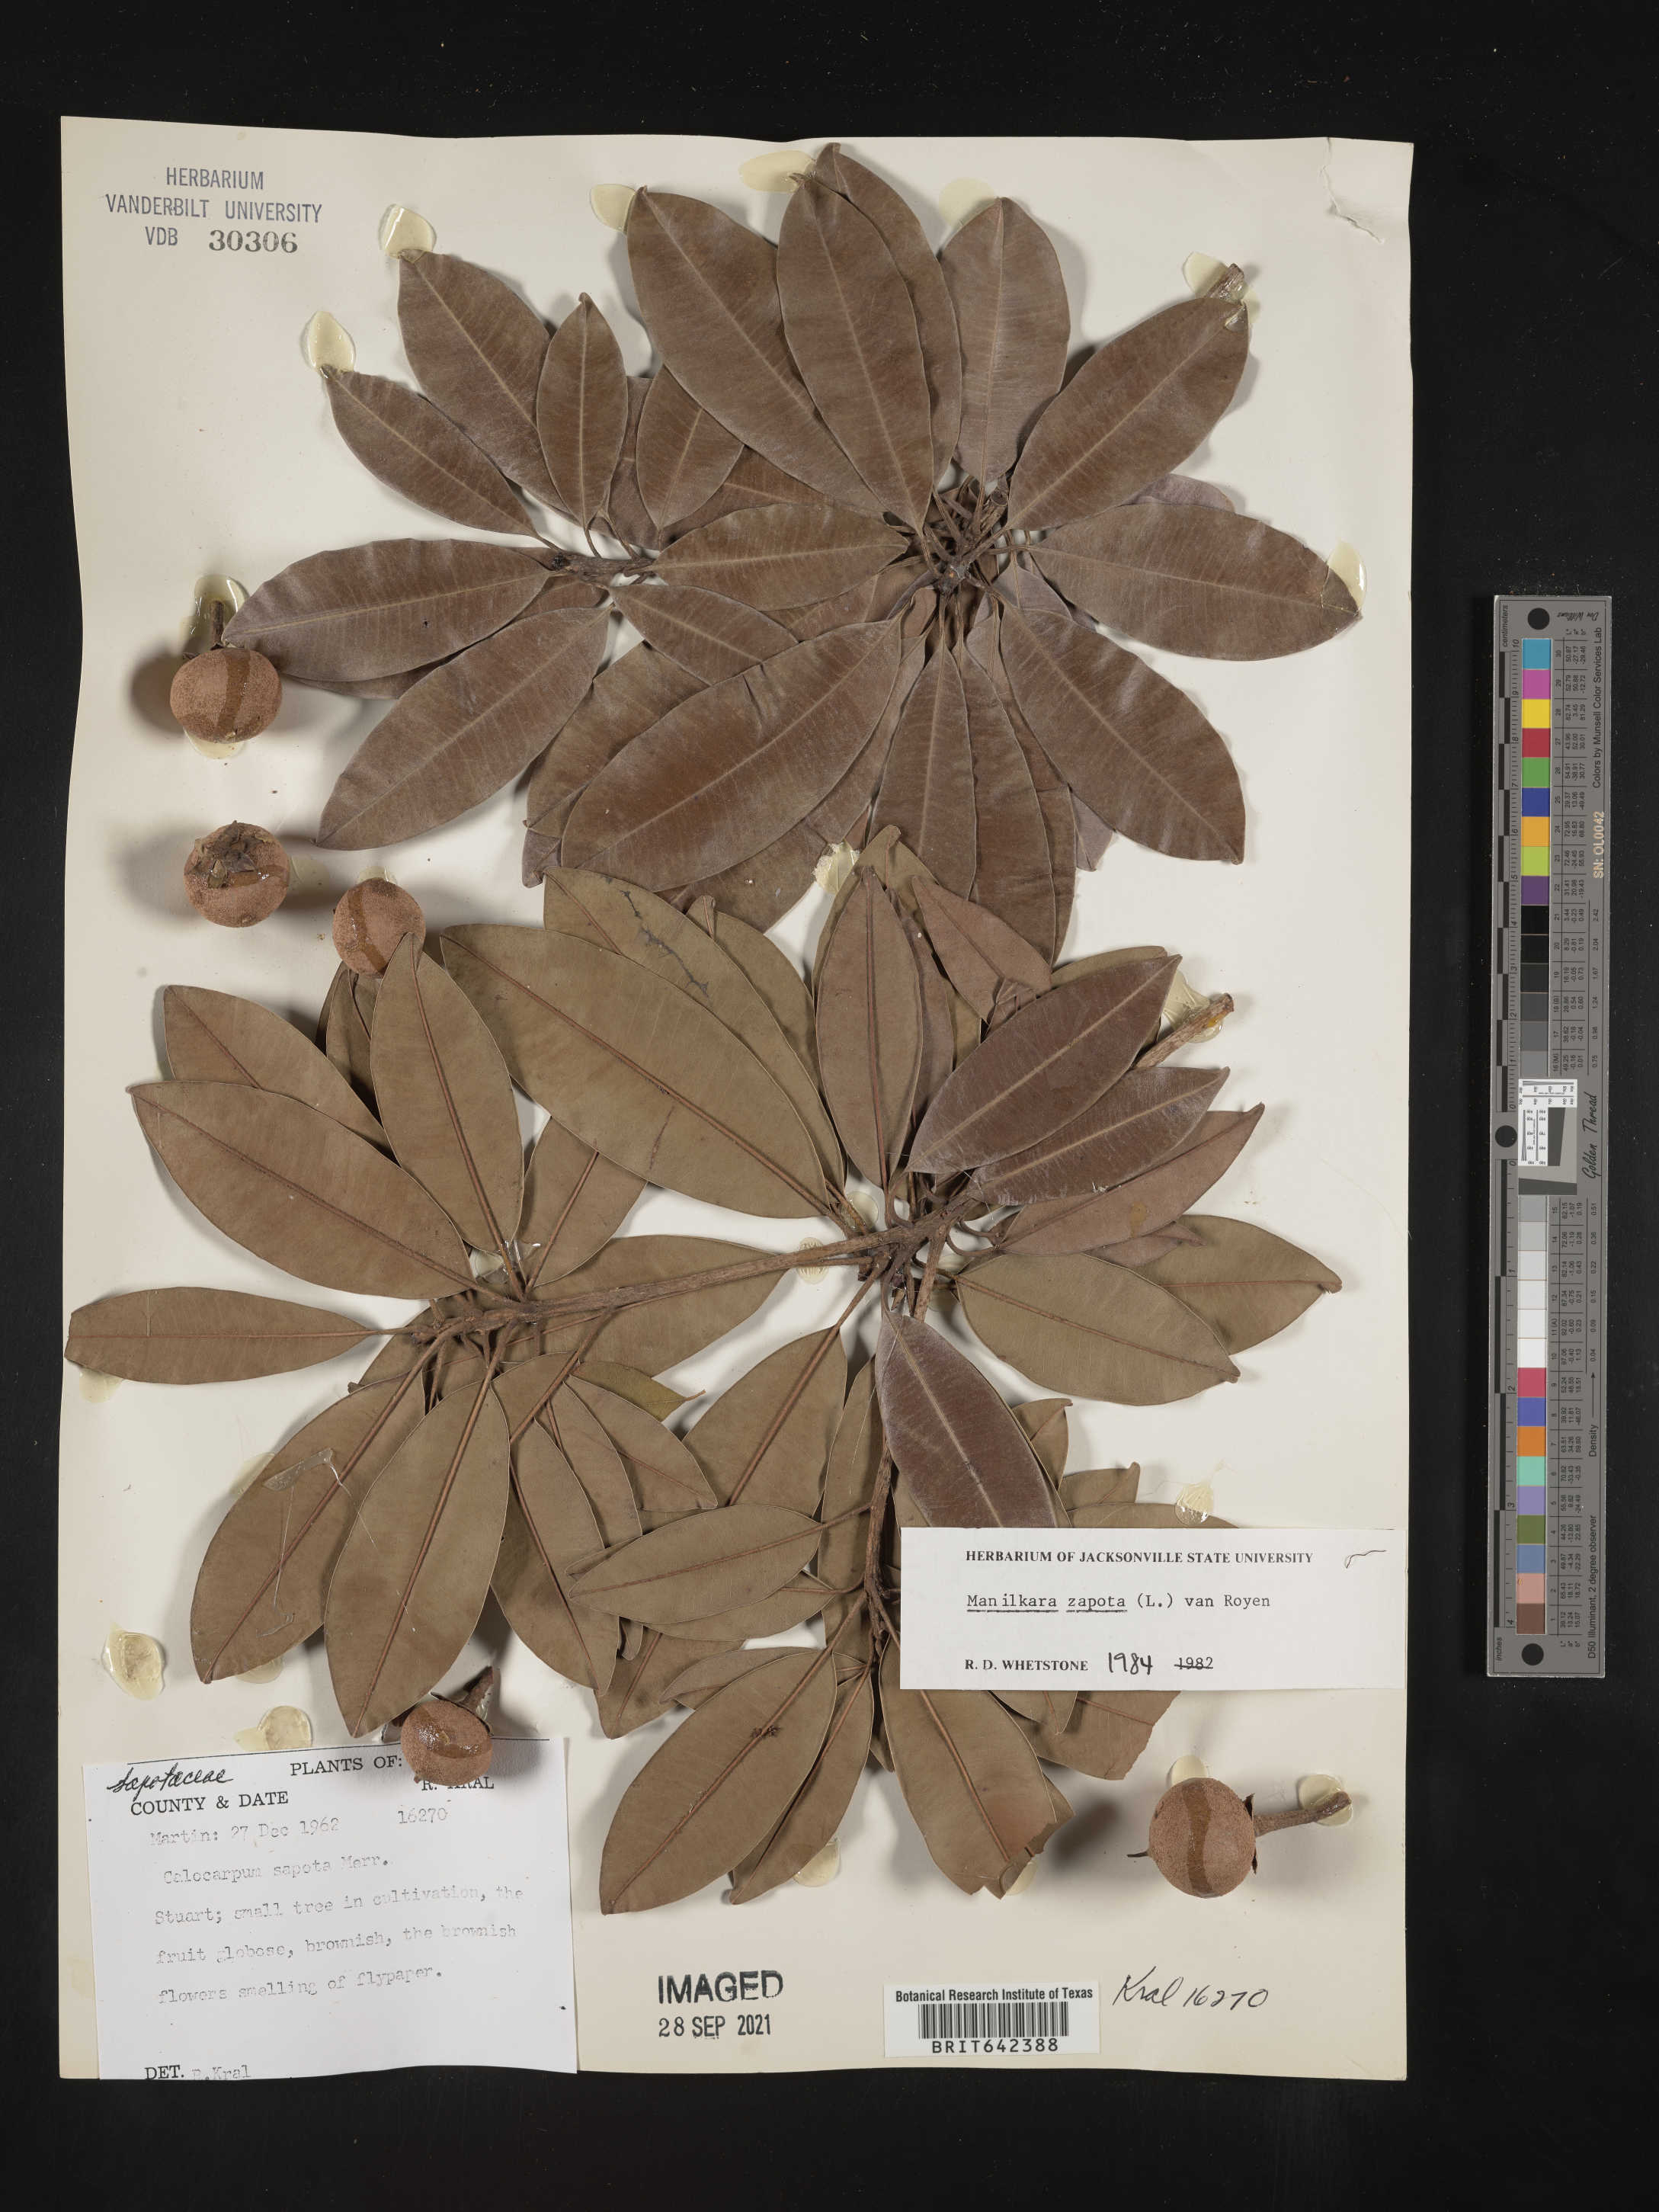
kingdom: Plantae
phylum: Tracheophyta
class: Magnoliopsida
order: Ericales
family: Sapotaceae
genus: Manilkara
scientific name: Manilkara zapota
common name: Sapodilla
